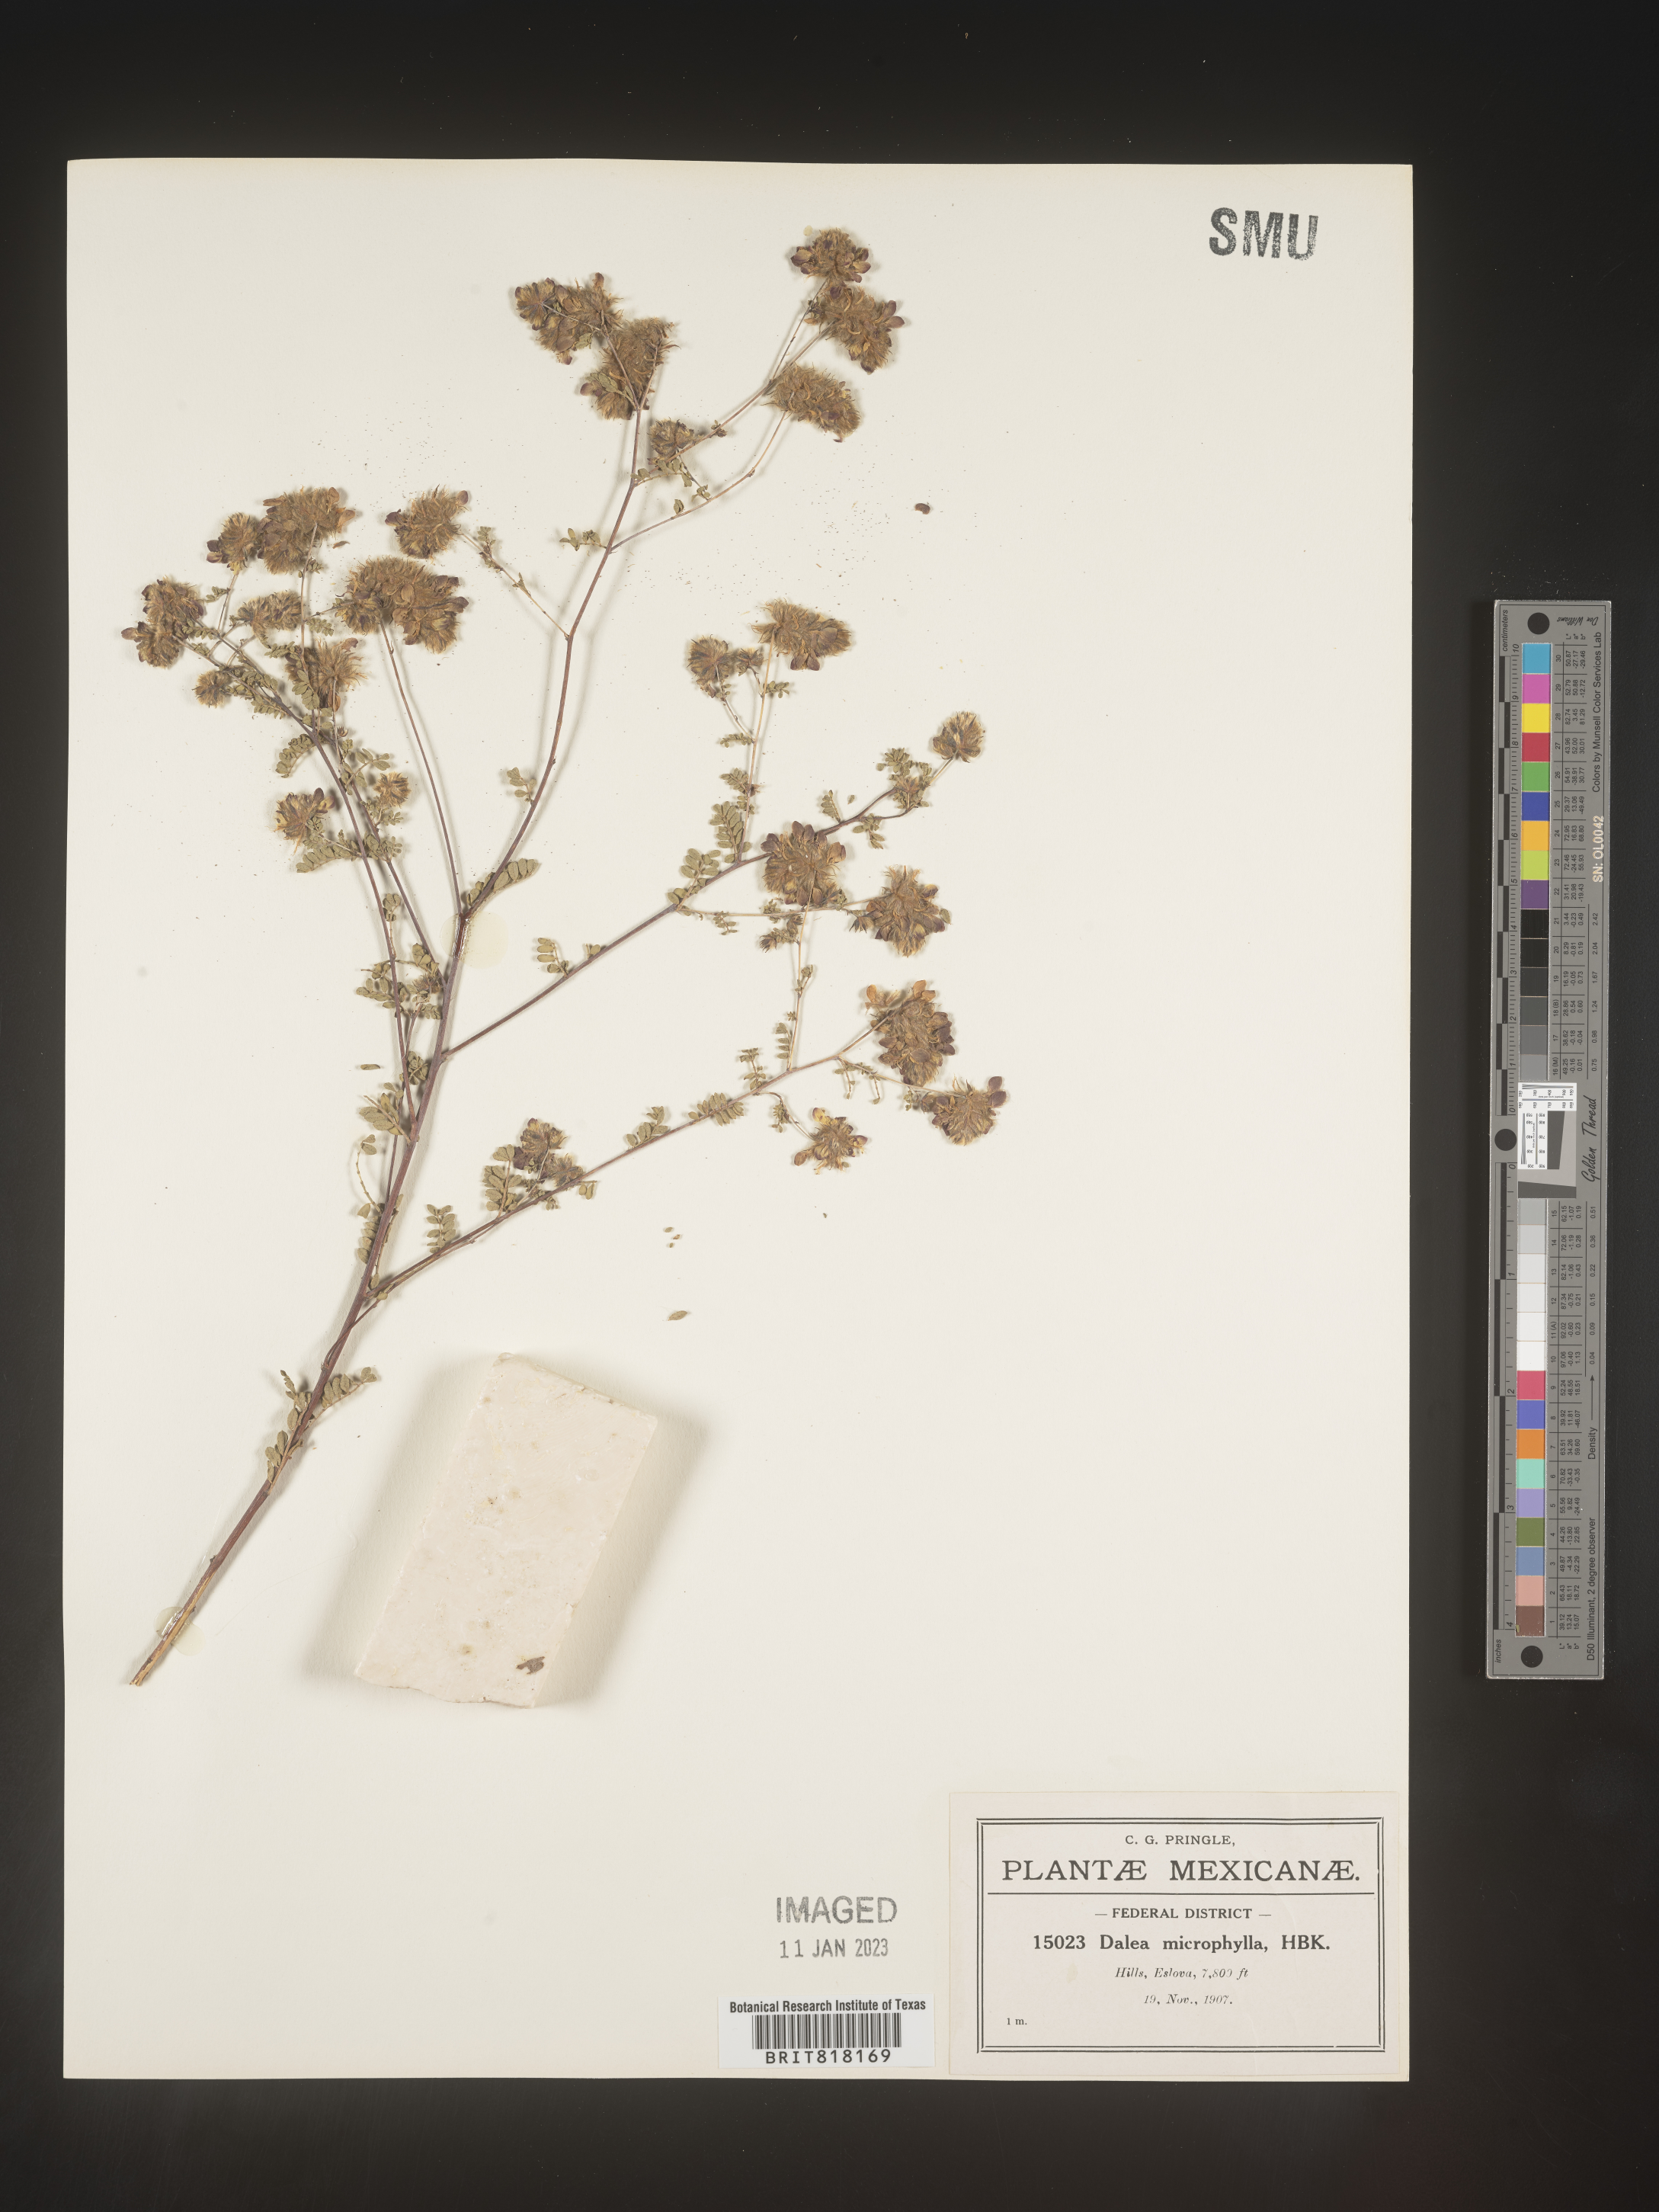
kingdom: Plantae
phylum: Tracheophyta
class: Magnoliopsida
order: Fabales
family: Fabaceae
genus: Dalea
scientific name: Dalea
